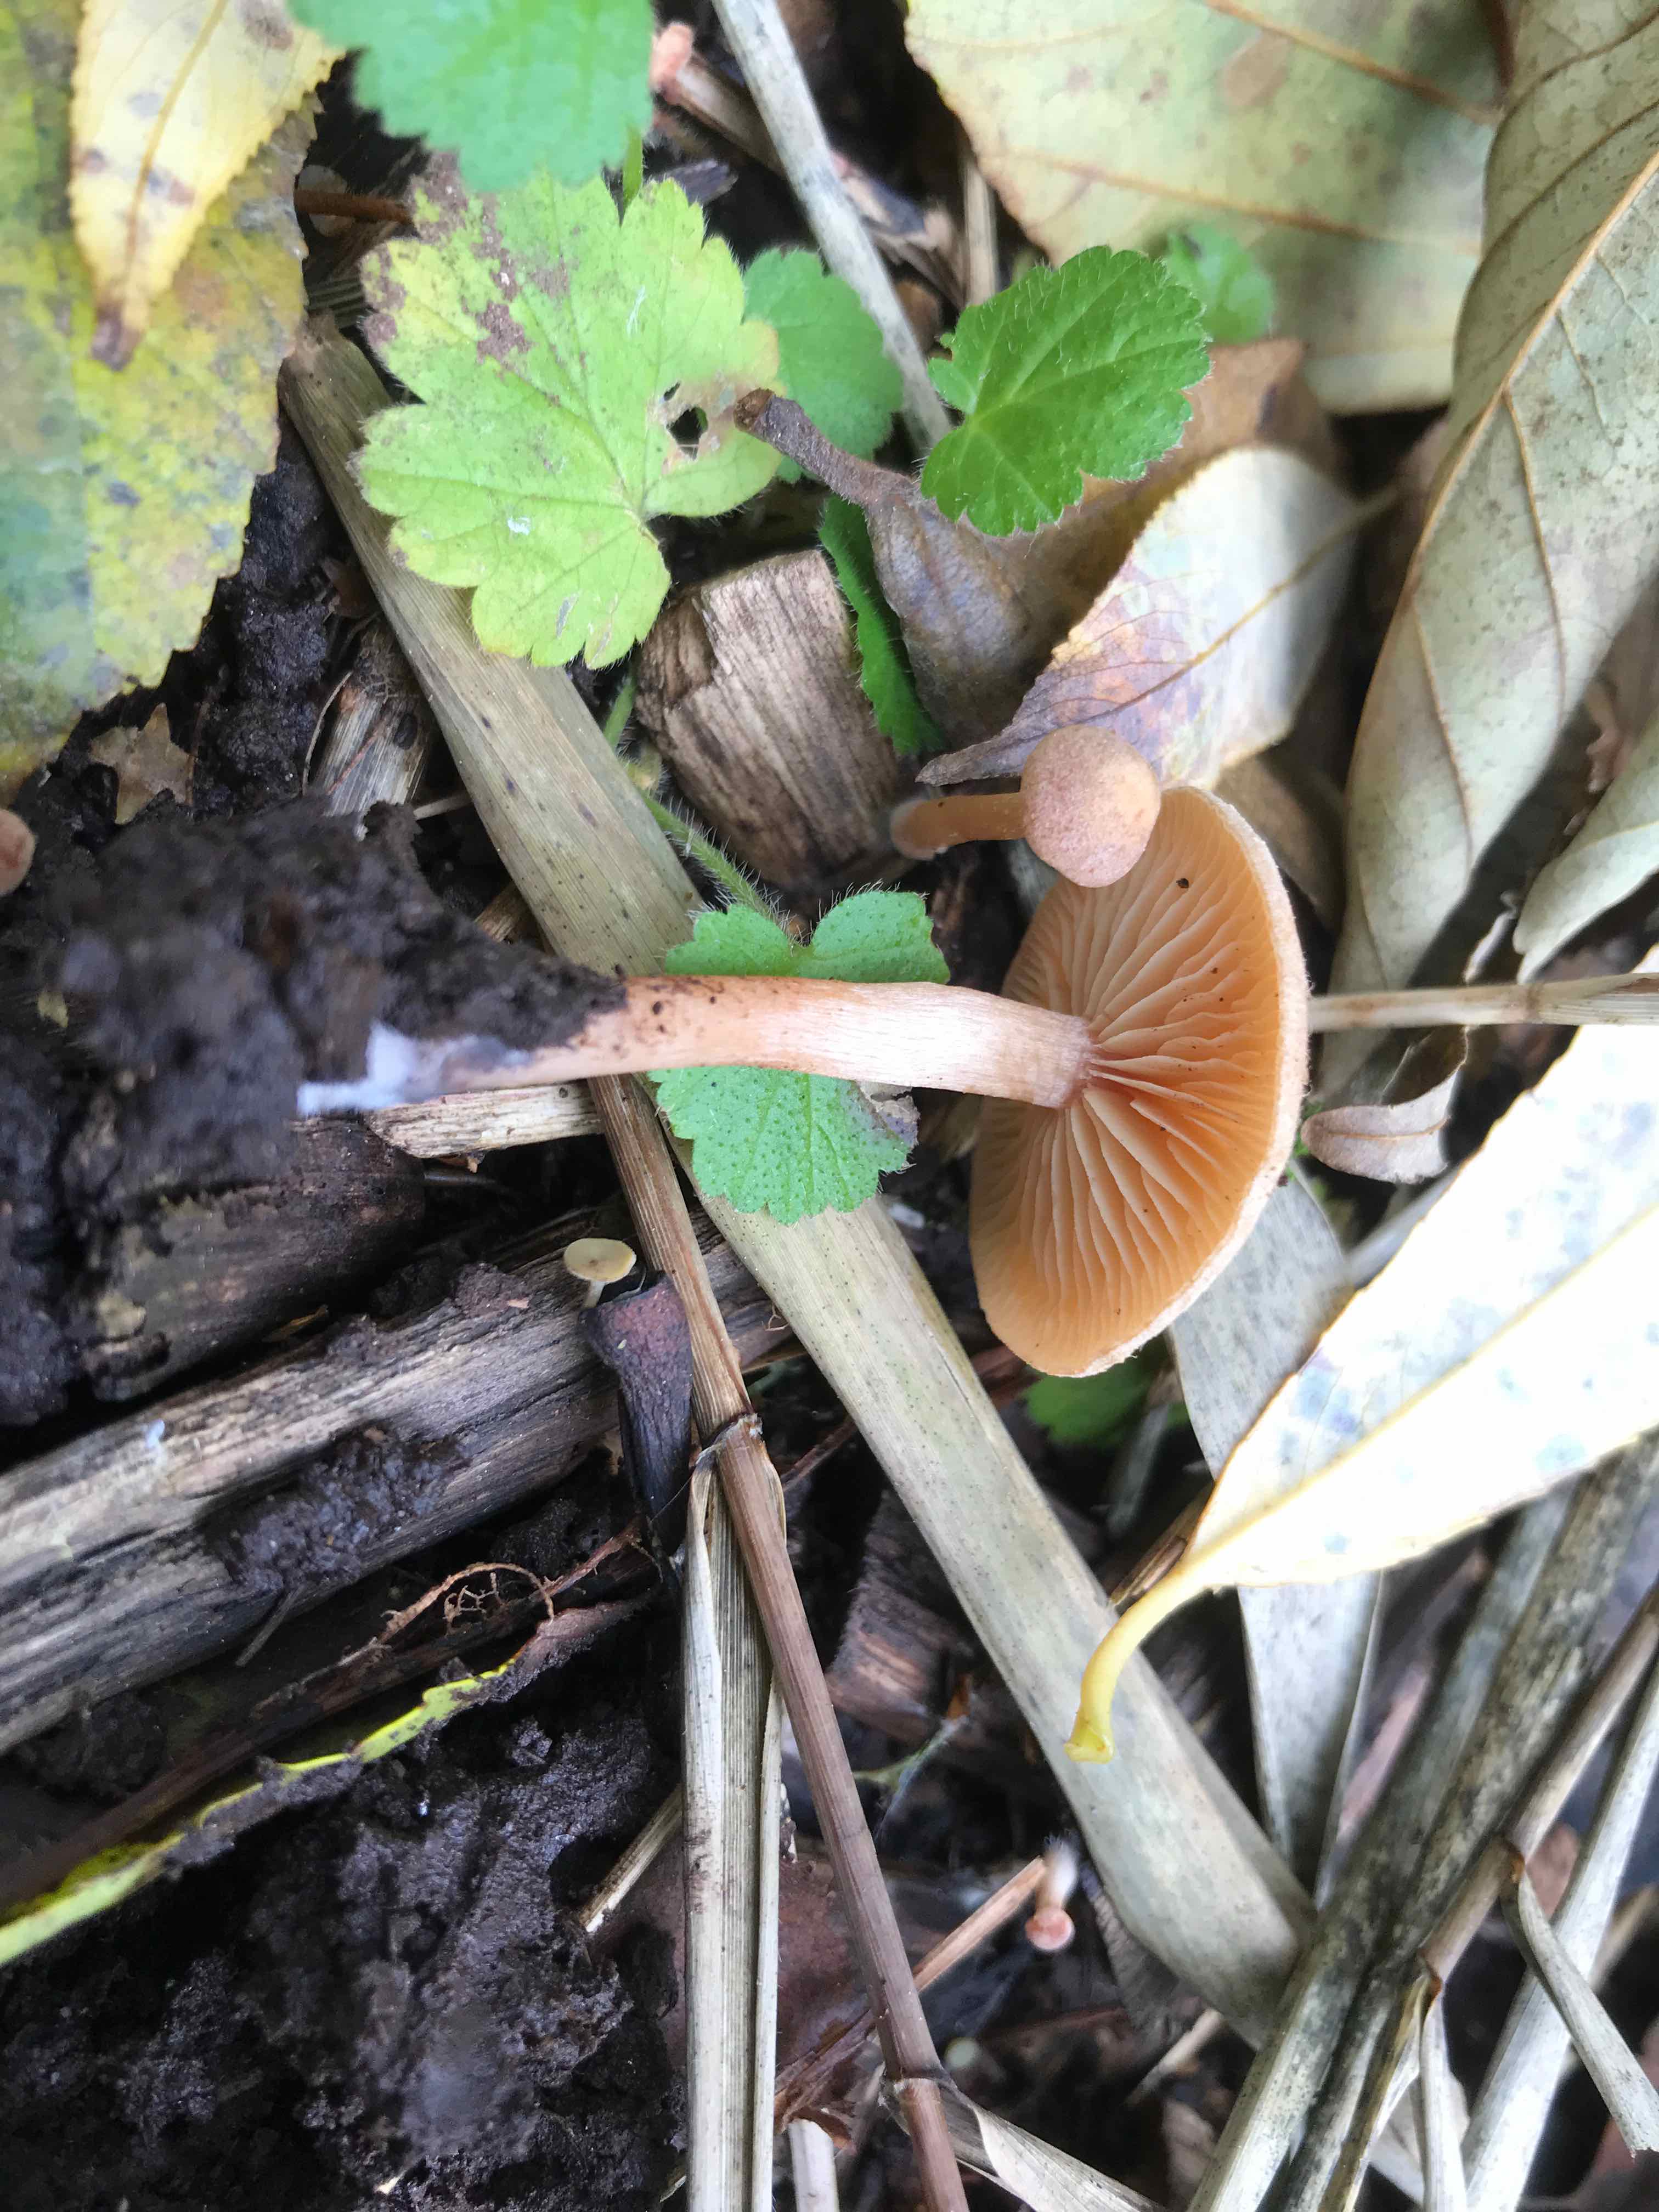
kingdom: Fungi
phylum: Basidiomycota
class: Agaricomycetes
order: Agaricales
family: Tubariaceae
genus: Tubaria
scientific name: Tubaria furfuracea
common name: kliddet fnughat
